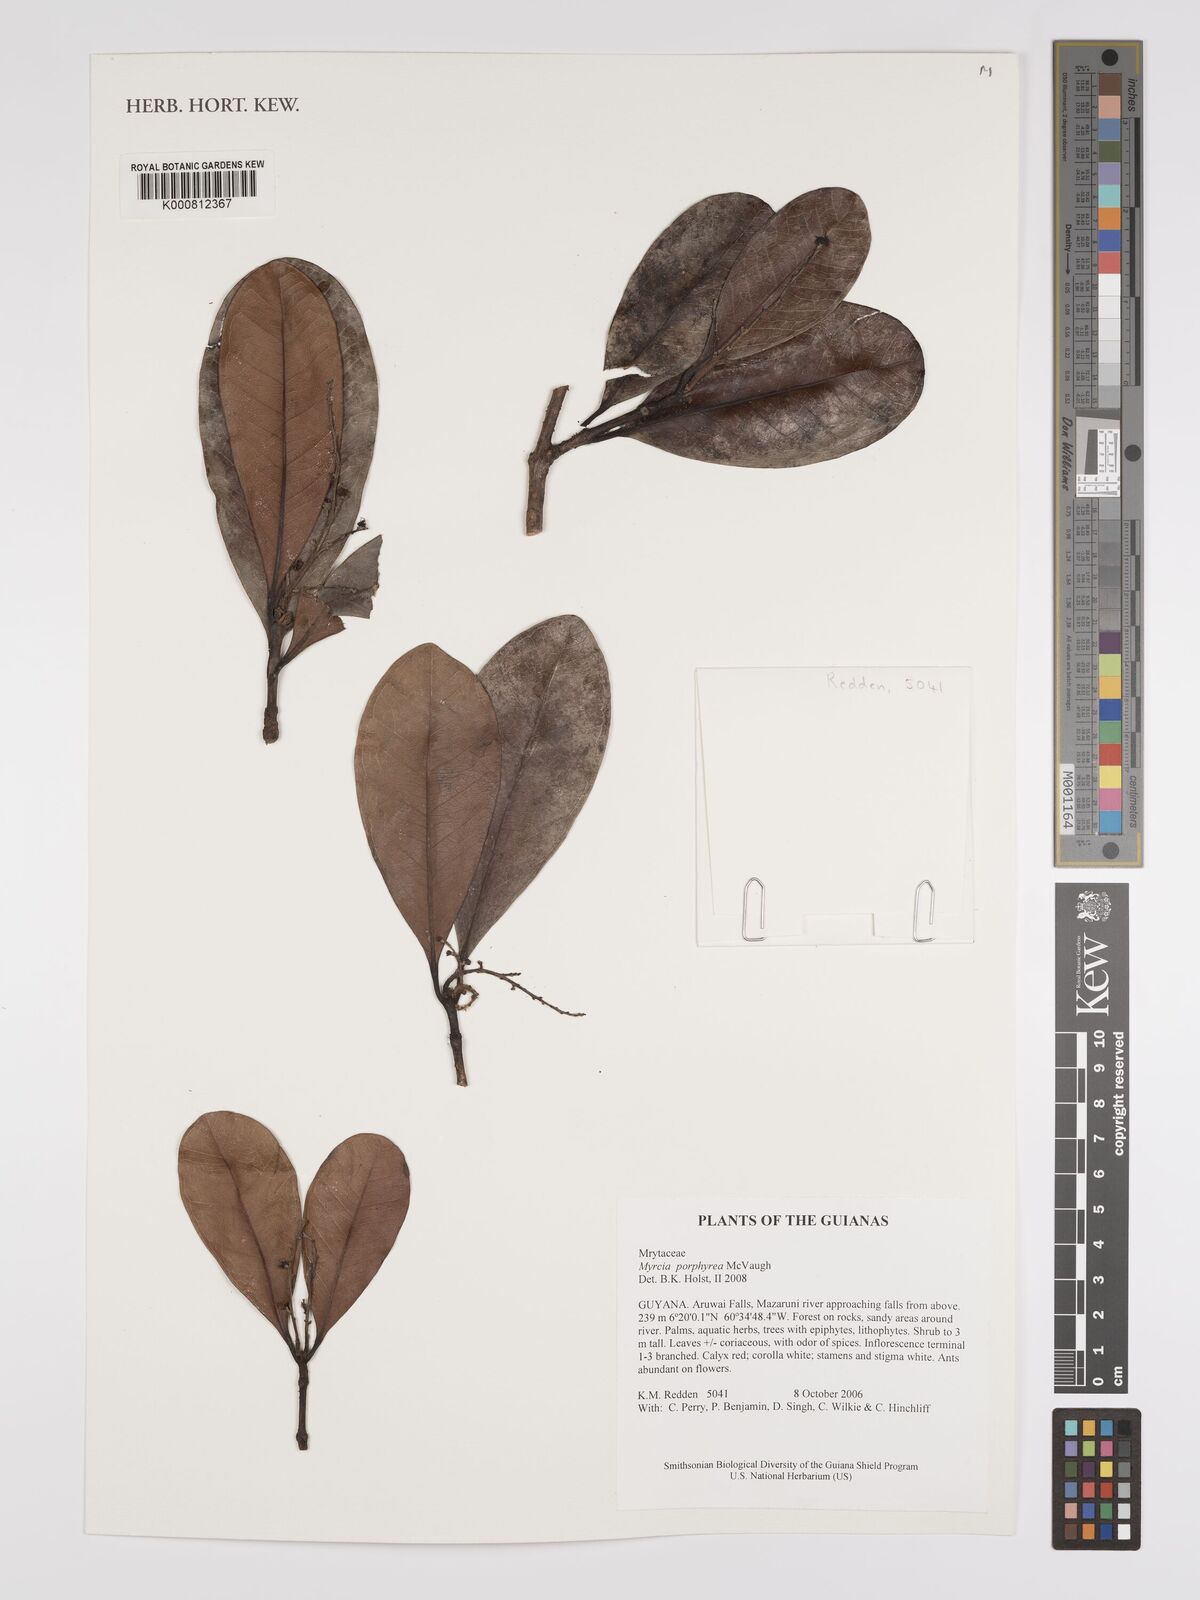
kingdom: Plantae
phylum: Tracheophyta
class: Magnoliopsida
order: Myrtales
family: Myrtaceae
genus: Myrcia
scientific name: Myrcia porphyrea
